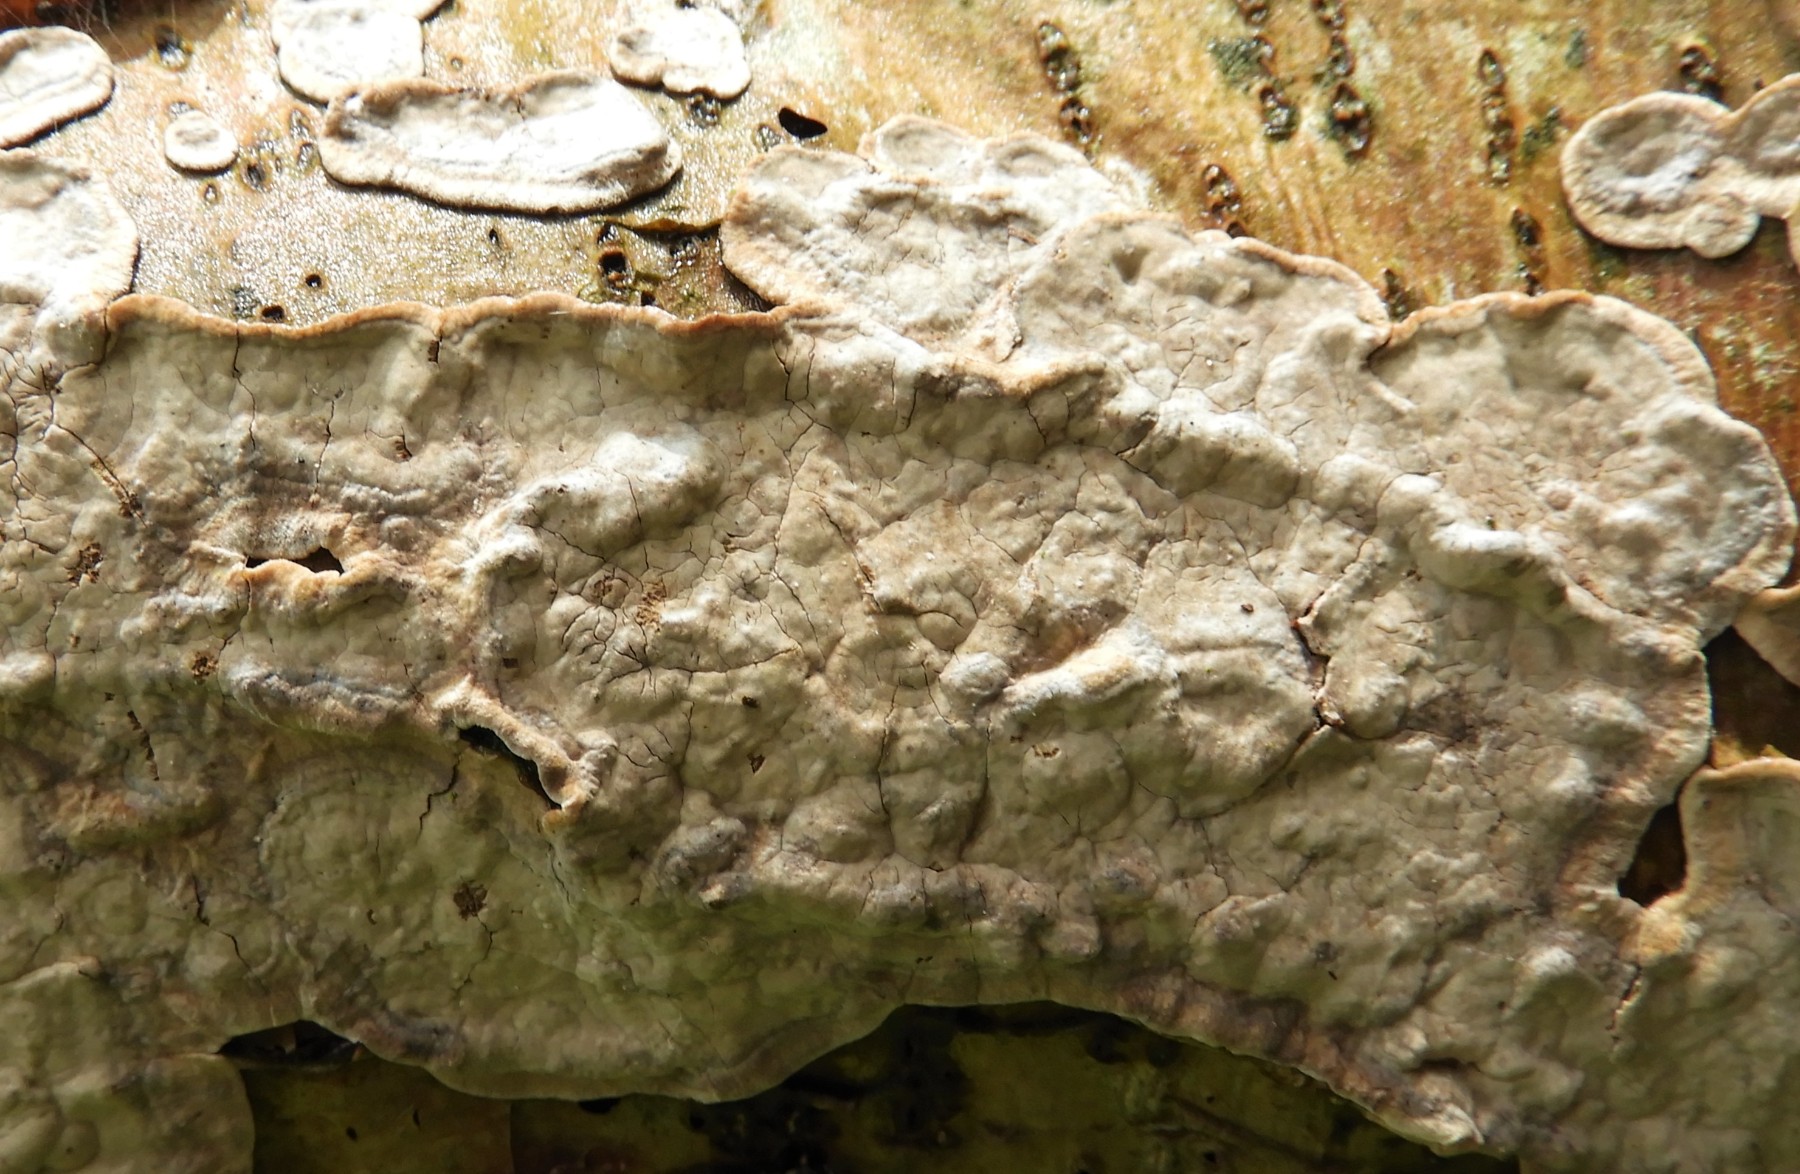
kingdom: Fungi
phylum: Basidiomycota
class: Agaricomycetes
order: Agaricales
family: Physalacriaceae
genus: Cylindrobasidium
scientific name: Cylindrobasidium evolvens
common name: sprækkehinde
